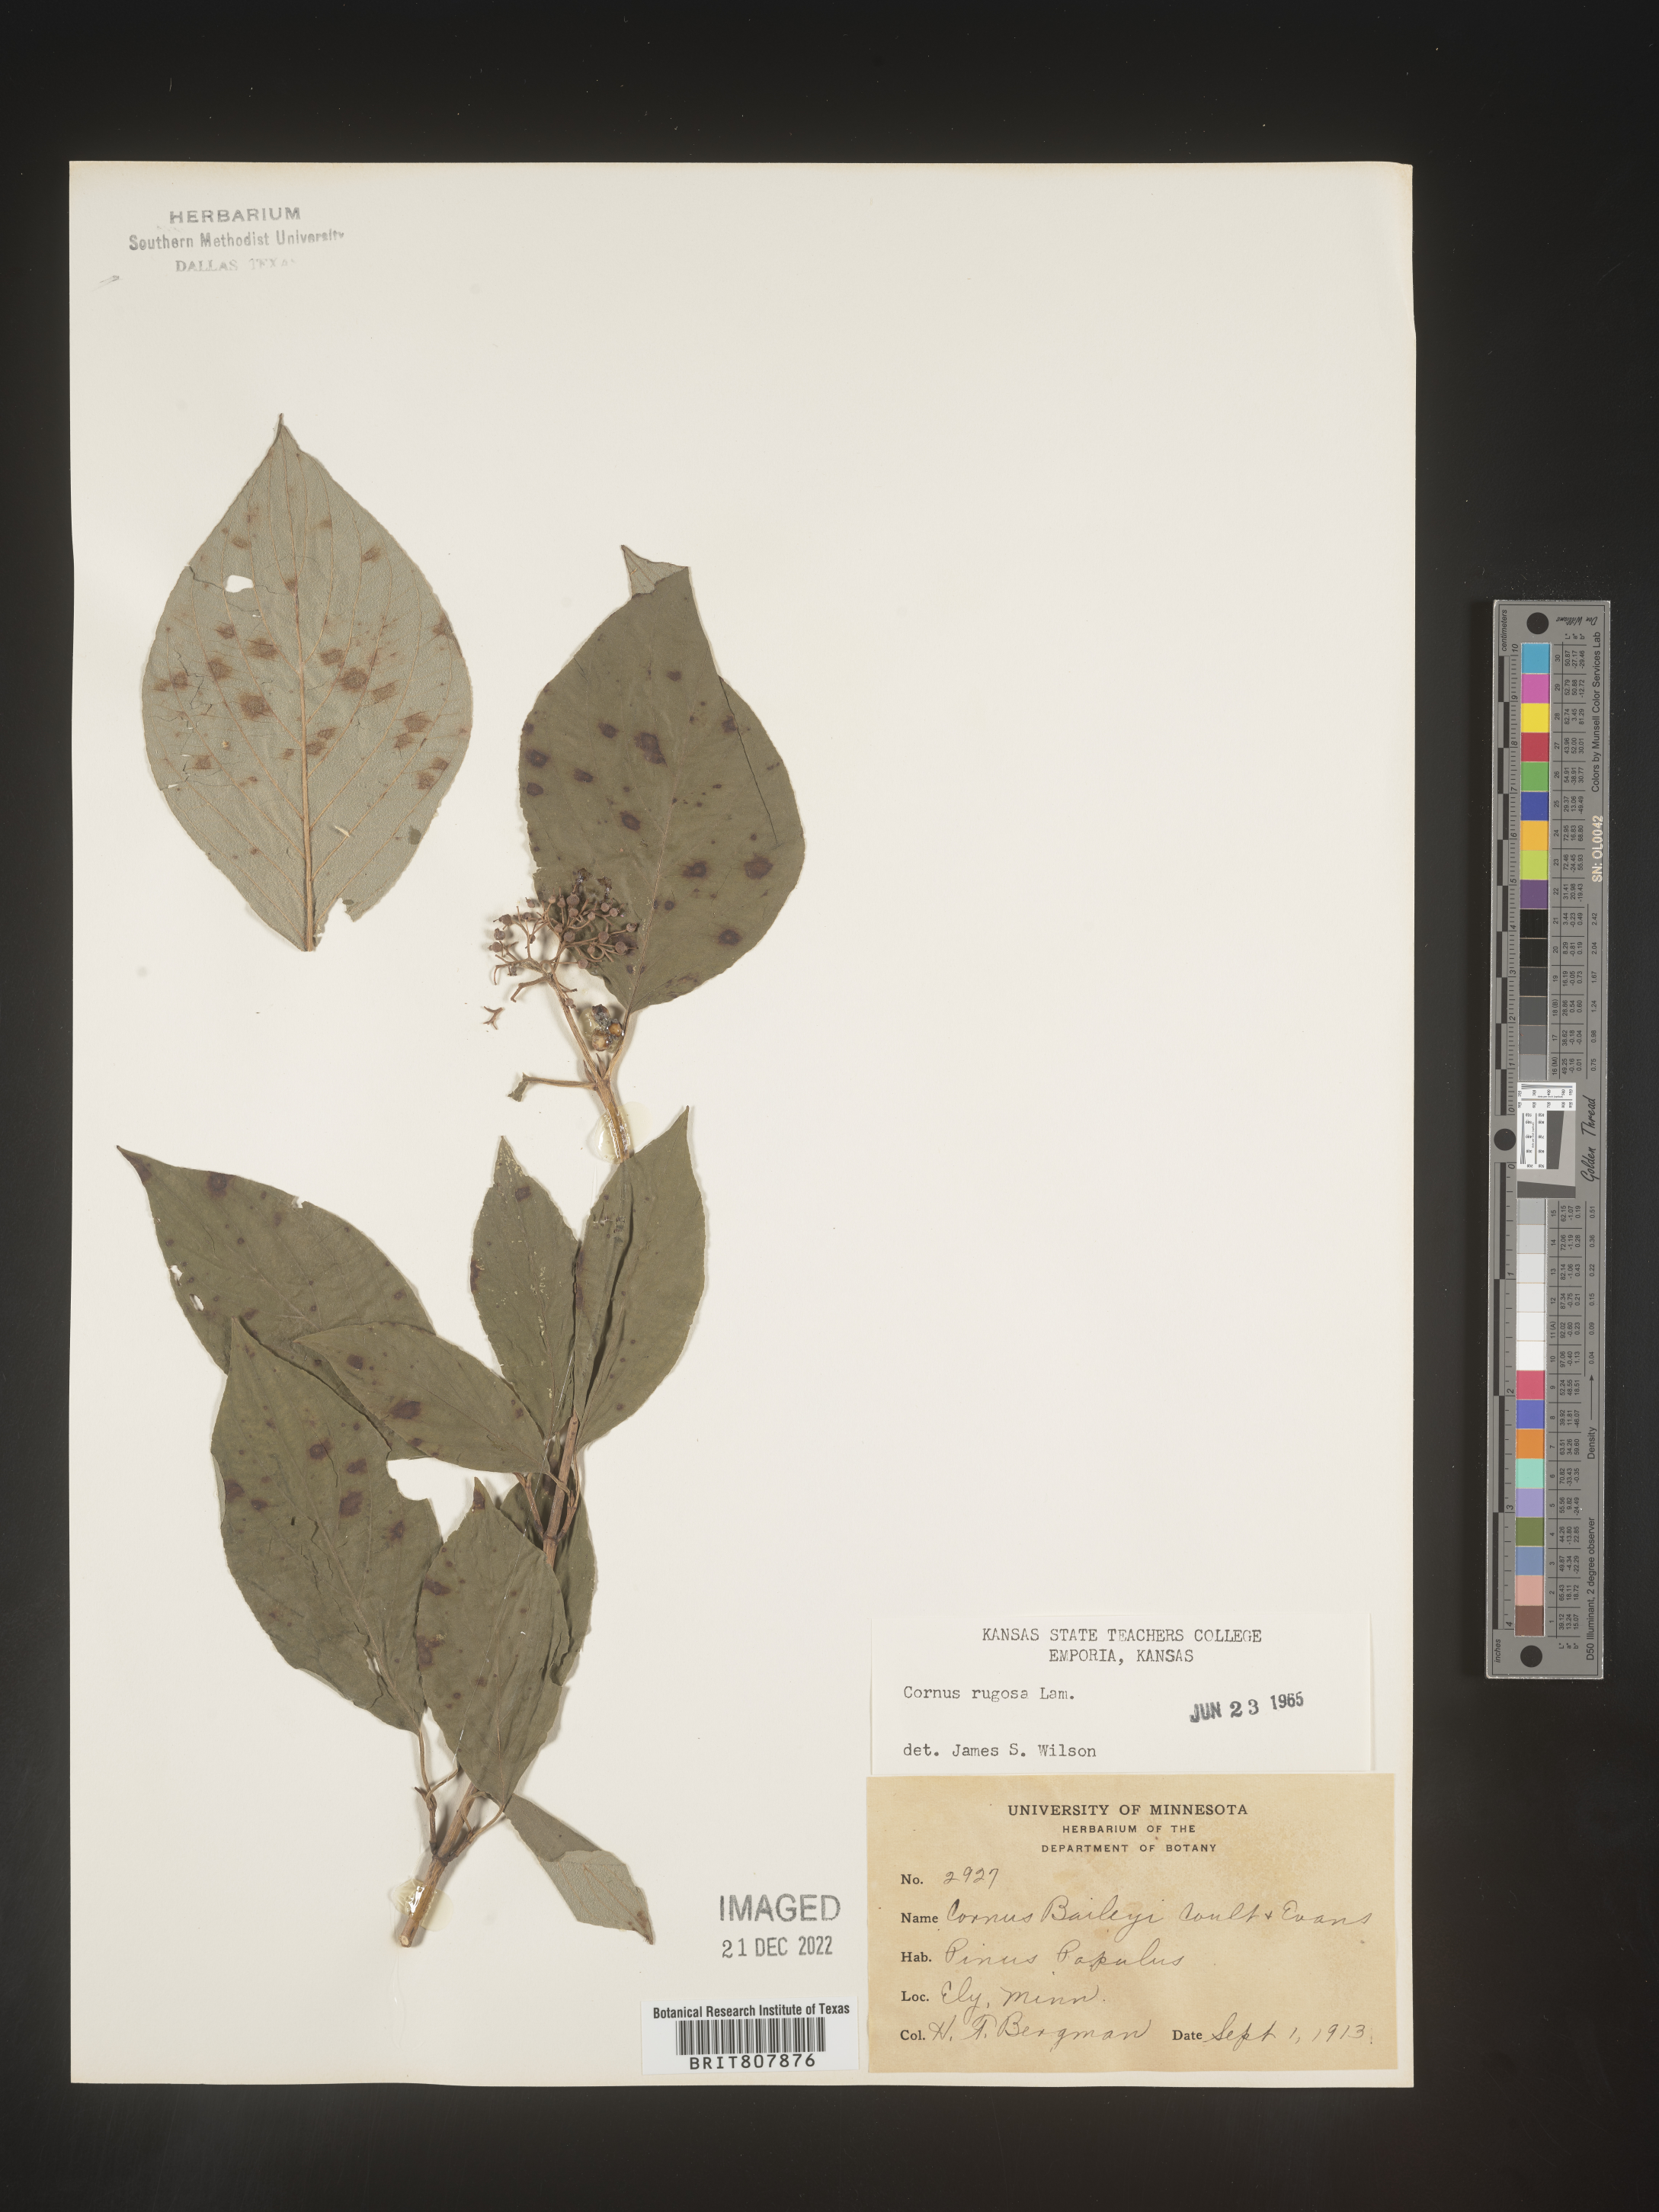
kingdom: Plantae
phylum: Tracheophyta
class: Magnoliopsida
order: Cornales
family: Cornaceae
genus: Cornus
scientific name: Cornus rugosa
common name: Round-leaf dogwood
